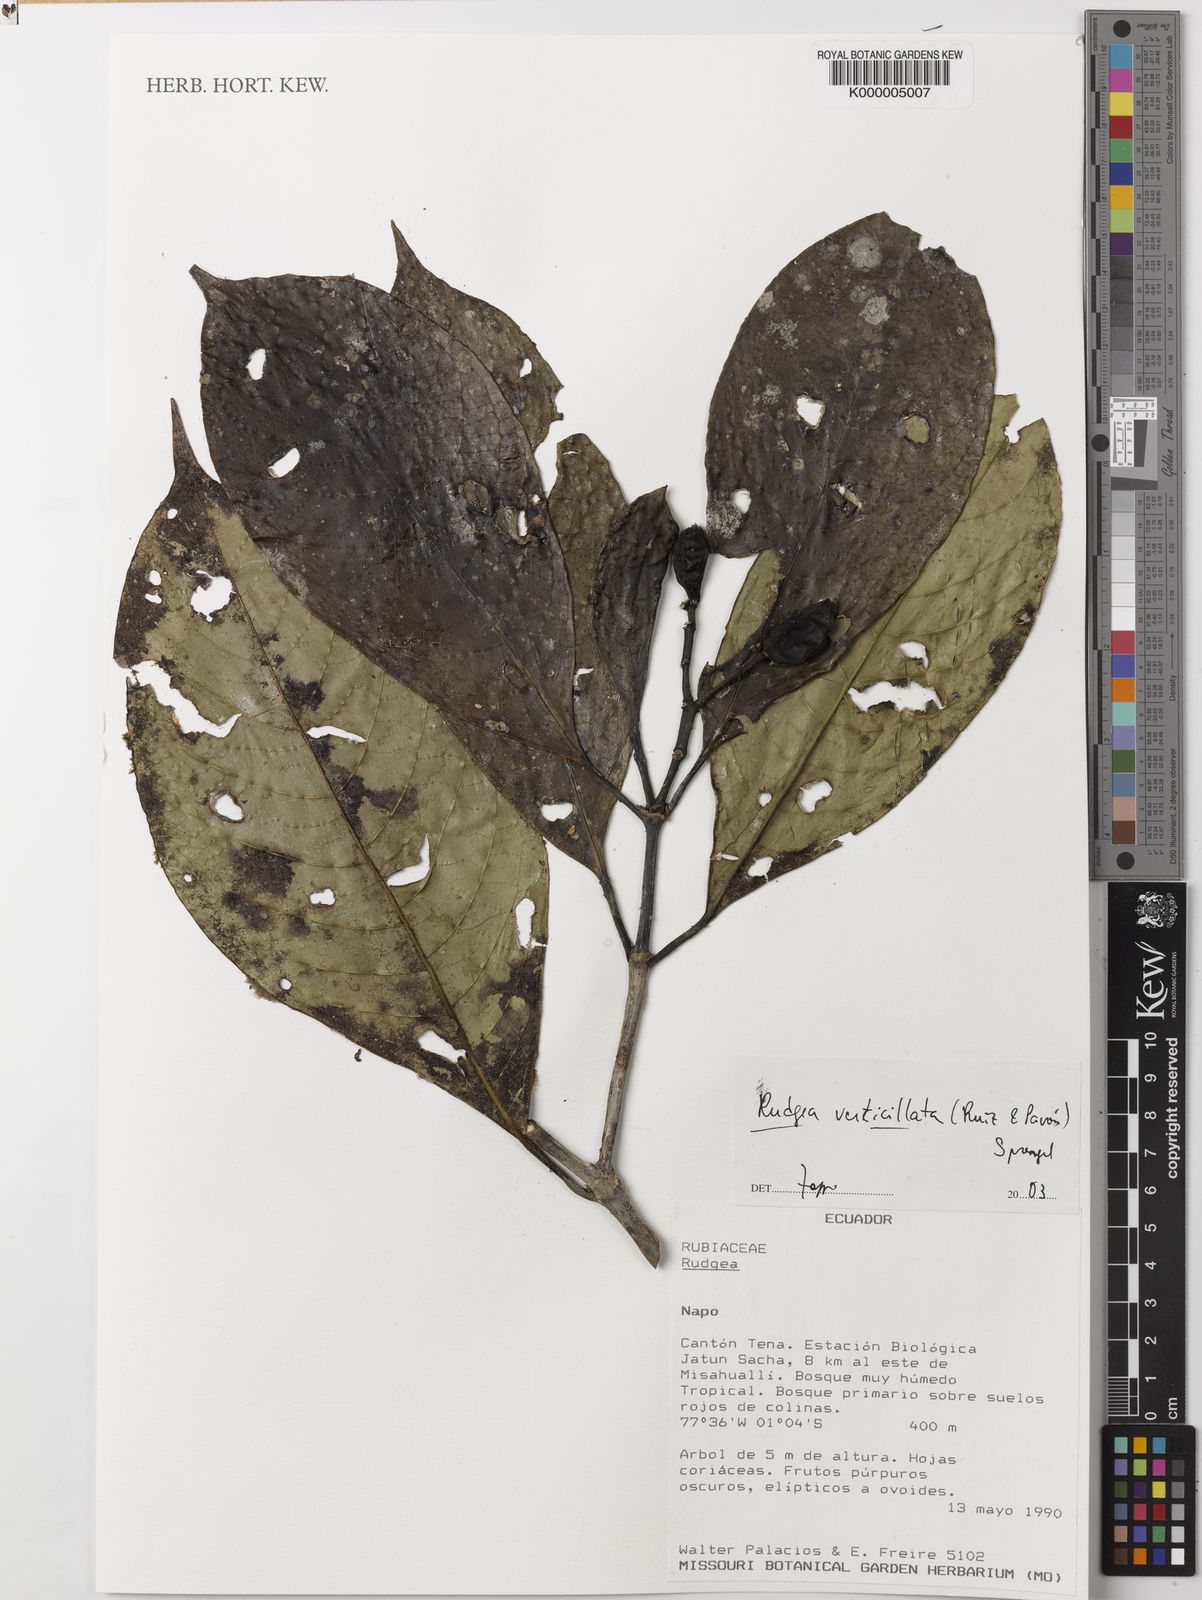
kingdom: Plantae
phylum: Tracheophyta
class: Magnoliopsida
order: Gentianales
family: Rubiaceae
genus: Rudgea
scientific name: Rudgea verticillata
